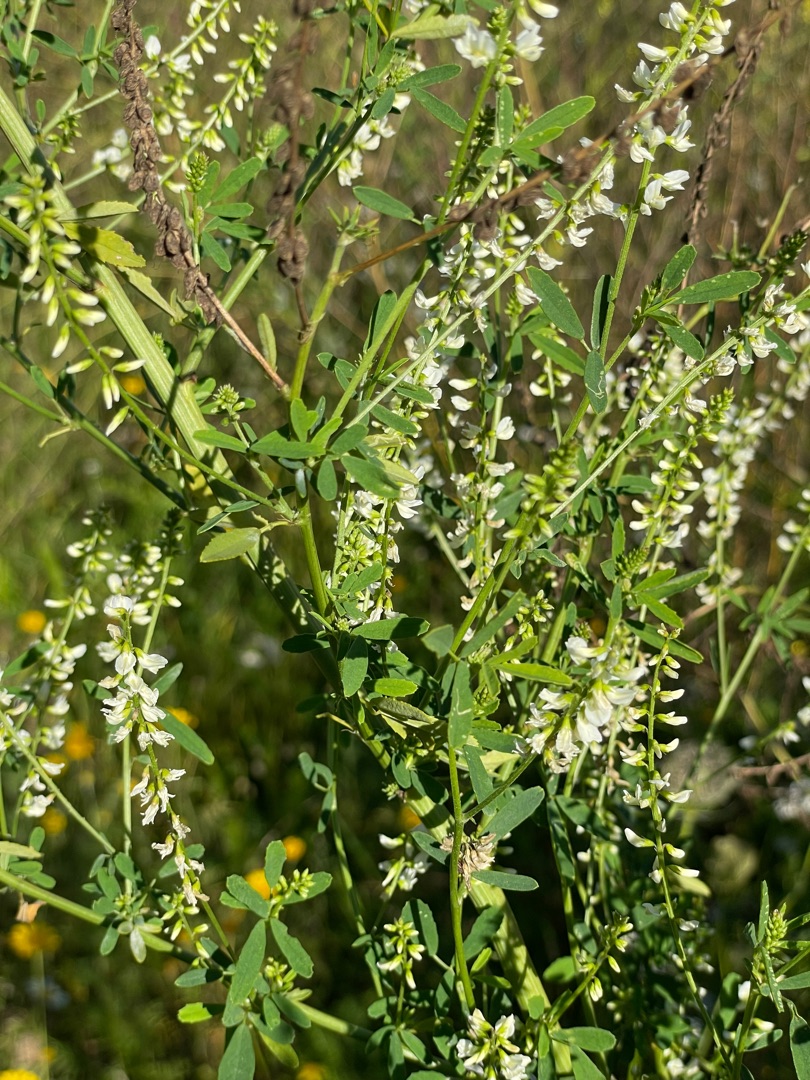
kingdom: Plantae
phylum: Tracheophyta
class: Magnoliopsida
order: Fabales
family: Fabaceae
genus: Melilotus
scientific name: Melilotus albus
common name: Hvid stenkløver
